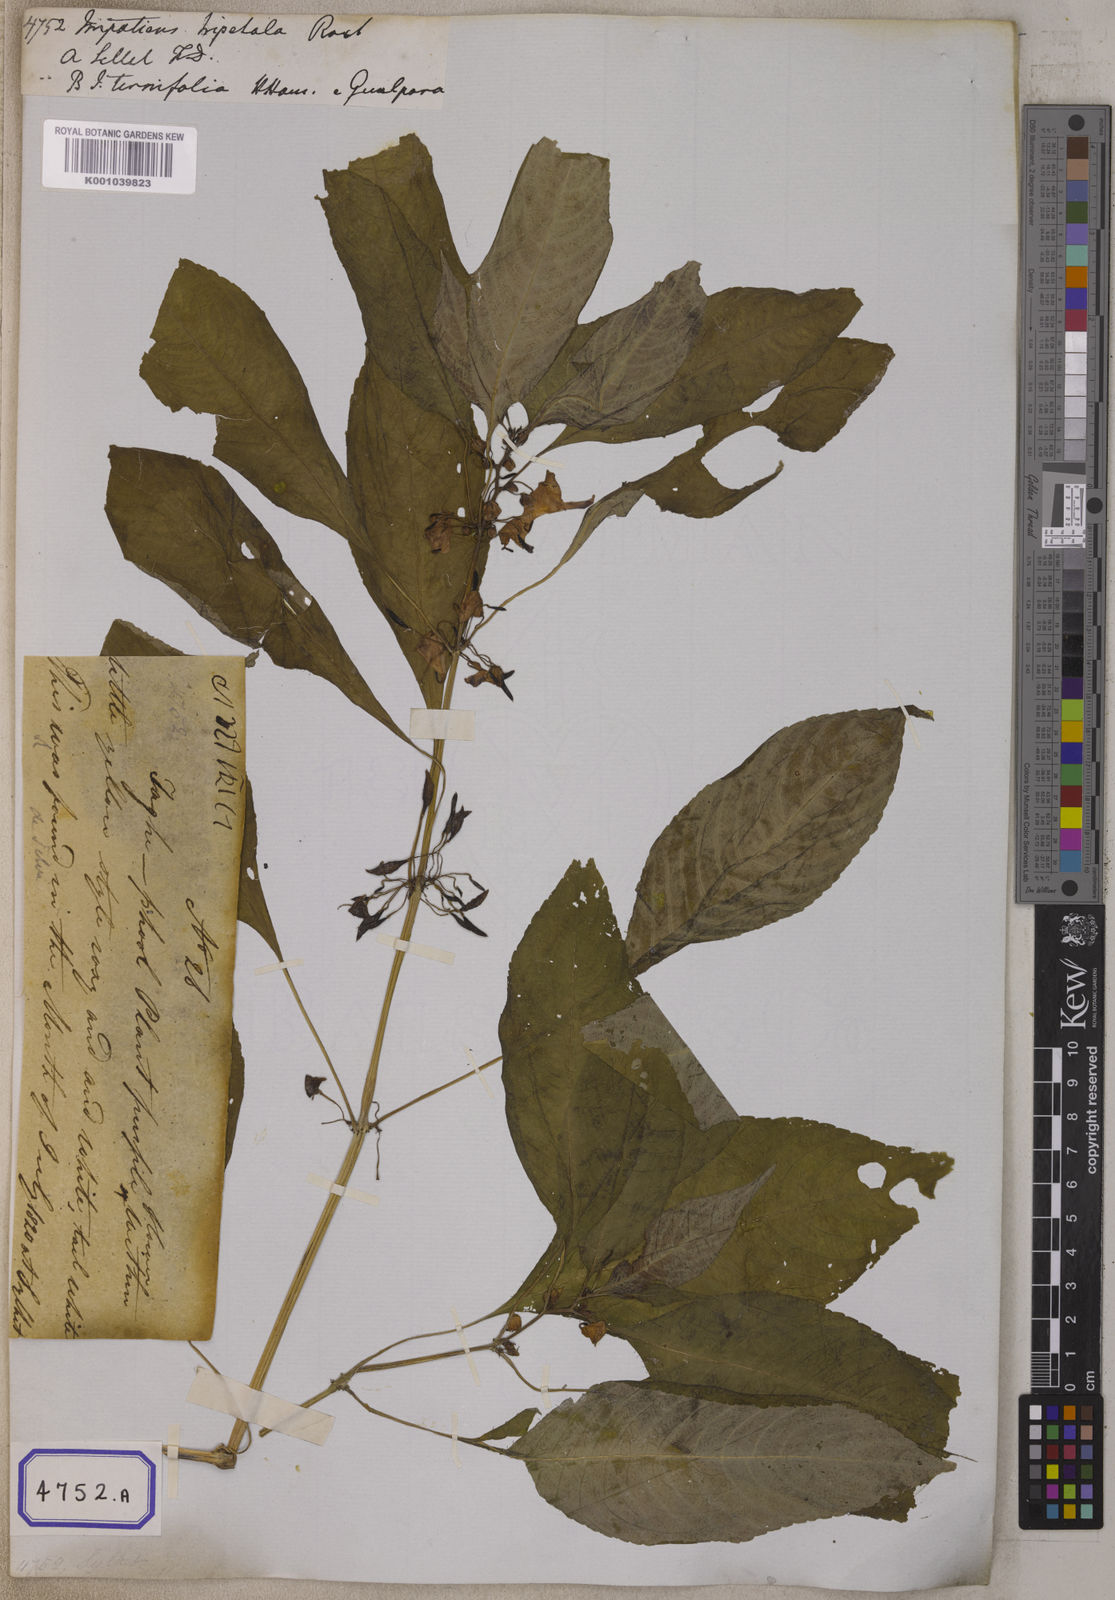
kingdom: Plantae
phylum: Tracheophyta
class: Magnoliopsida
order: Ericales
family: Balsaminaceae
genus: Impatiens
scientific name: Impatiens
